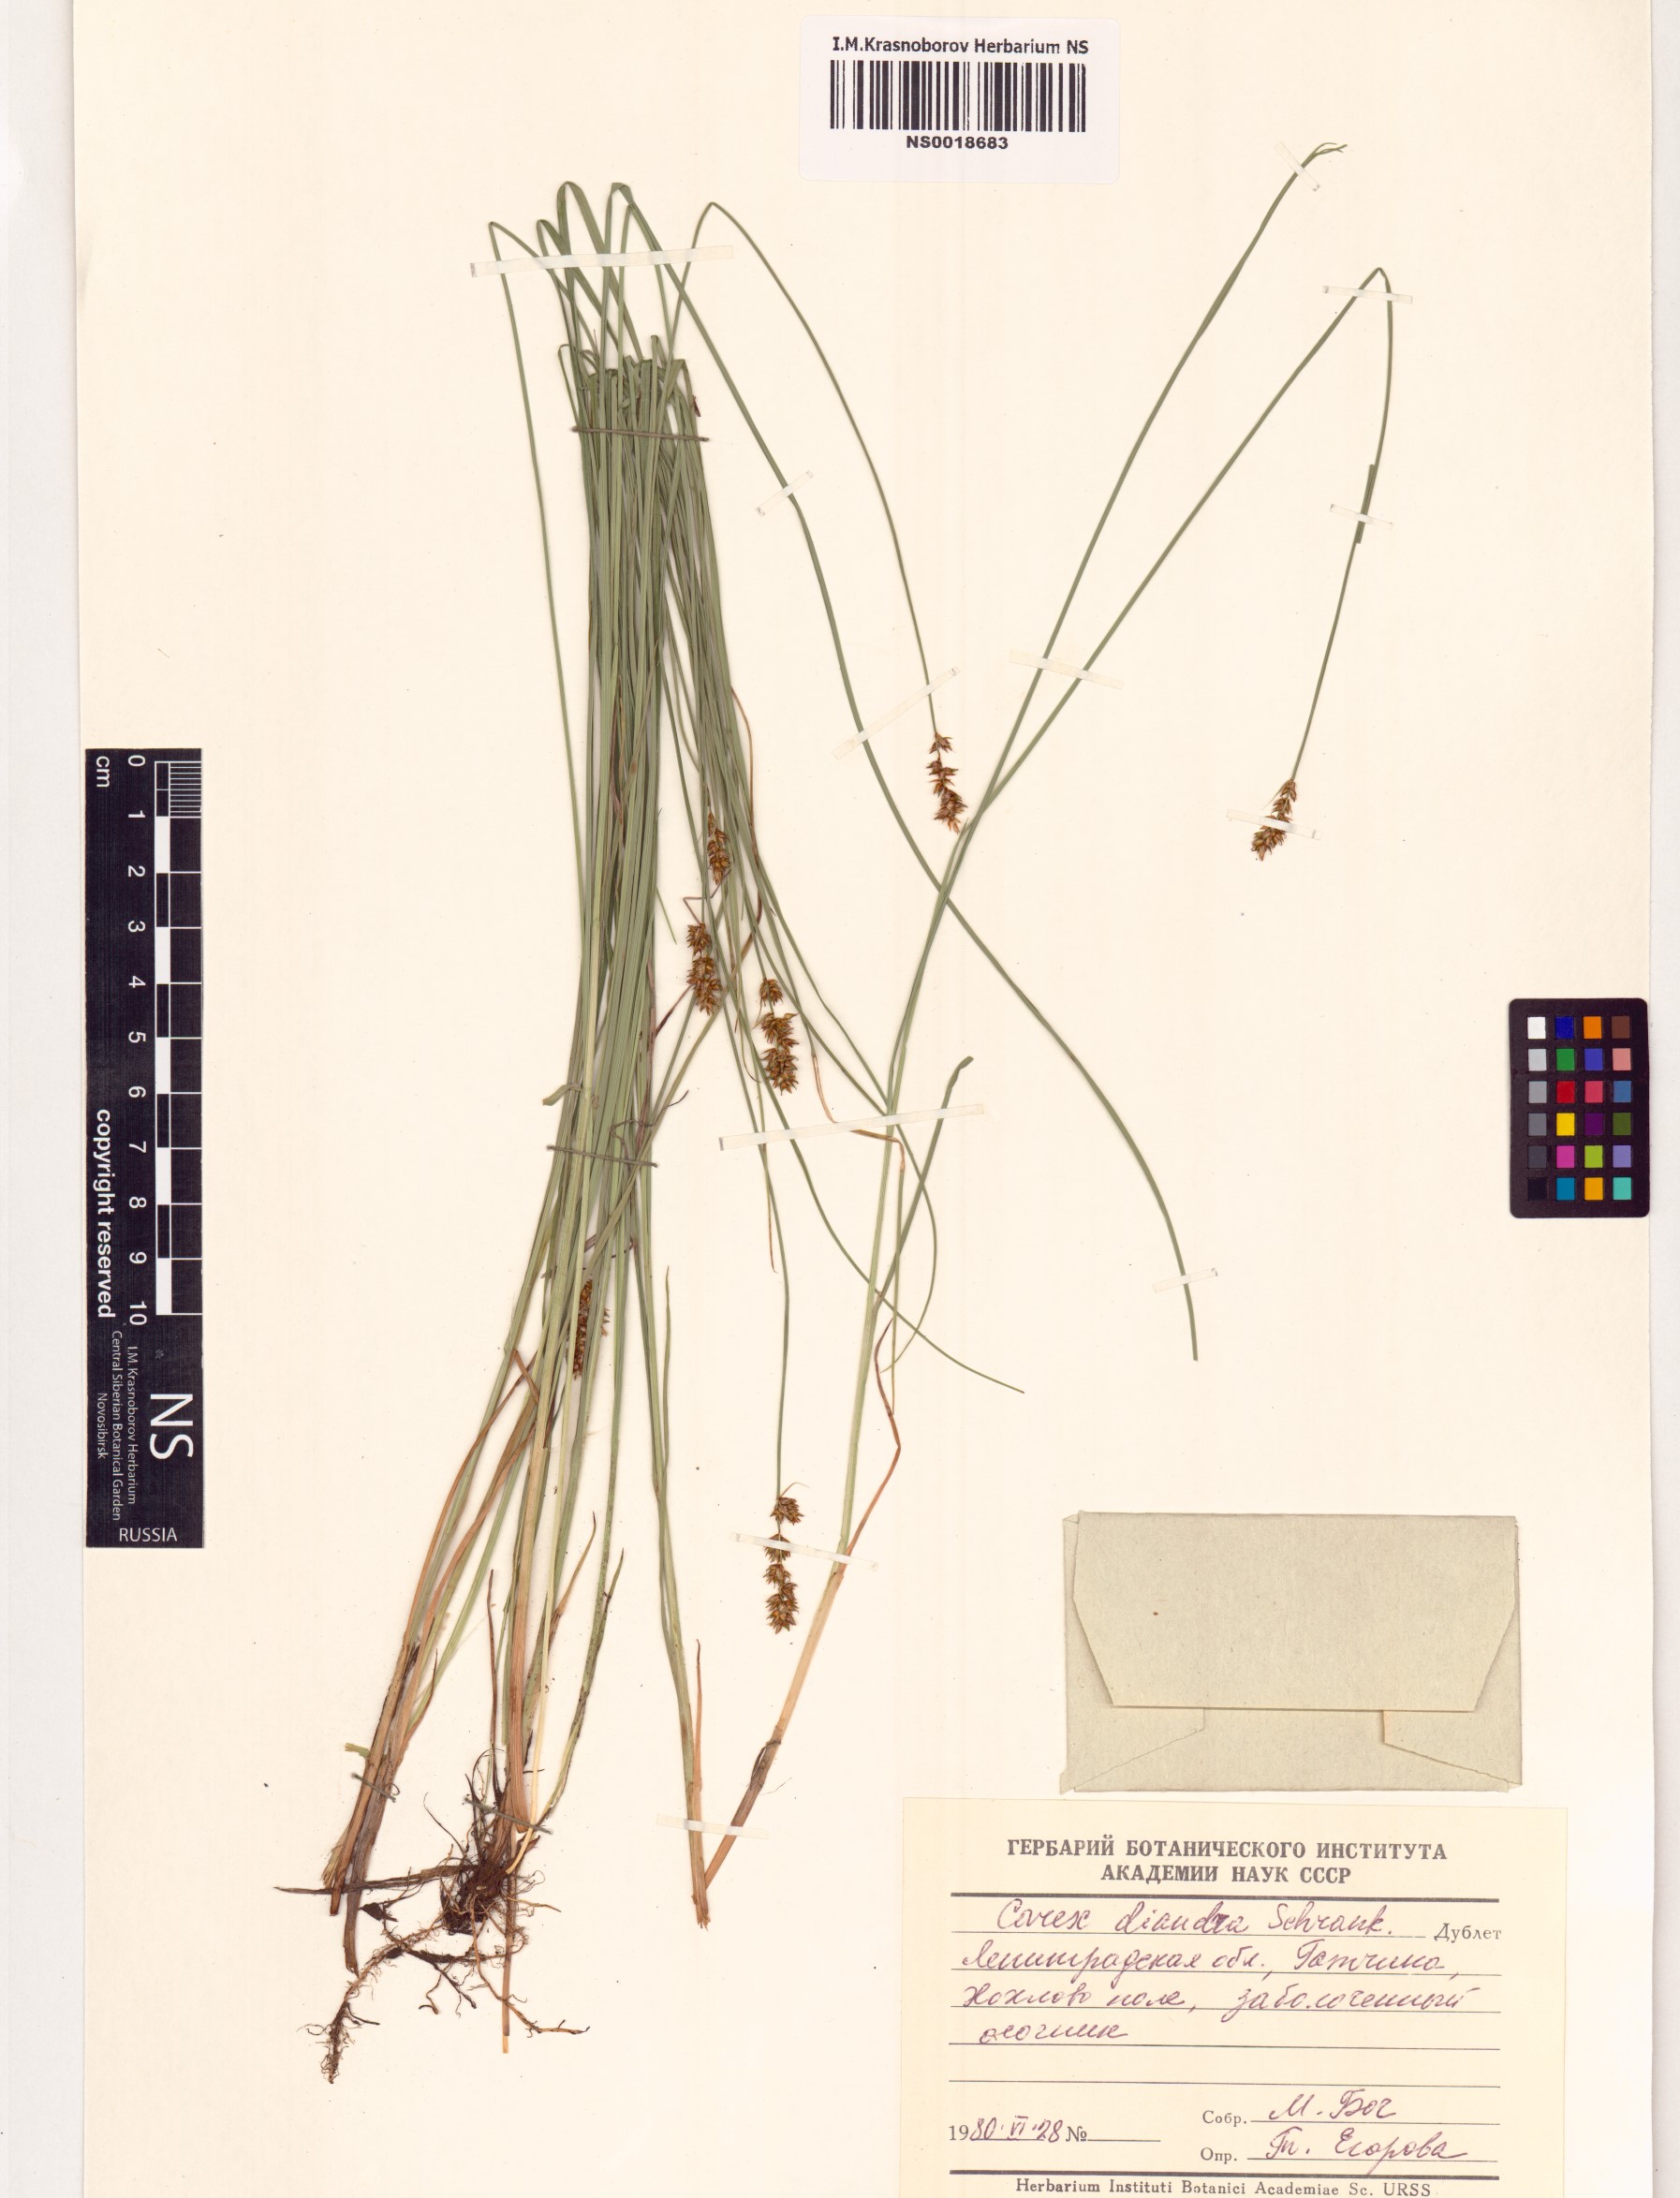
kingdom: Plantae
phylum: Tracheophyta
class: Liliopsida
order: Poales
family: Cyperaceae
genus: Carex
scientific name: Carex diandra
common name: Lesser tussock-sedge
